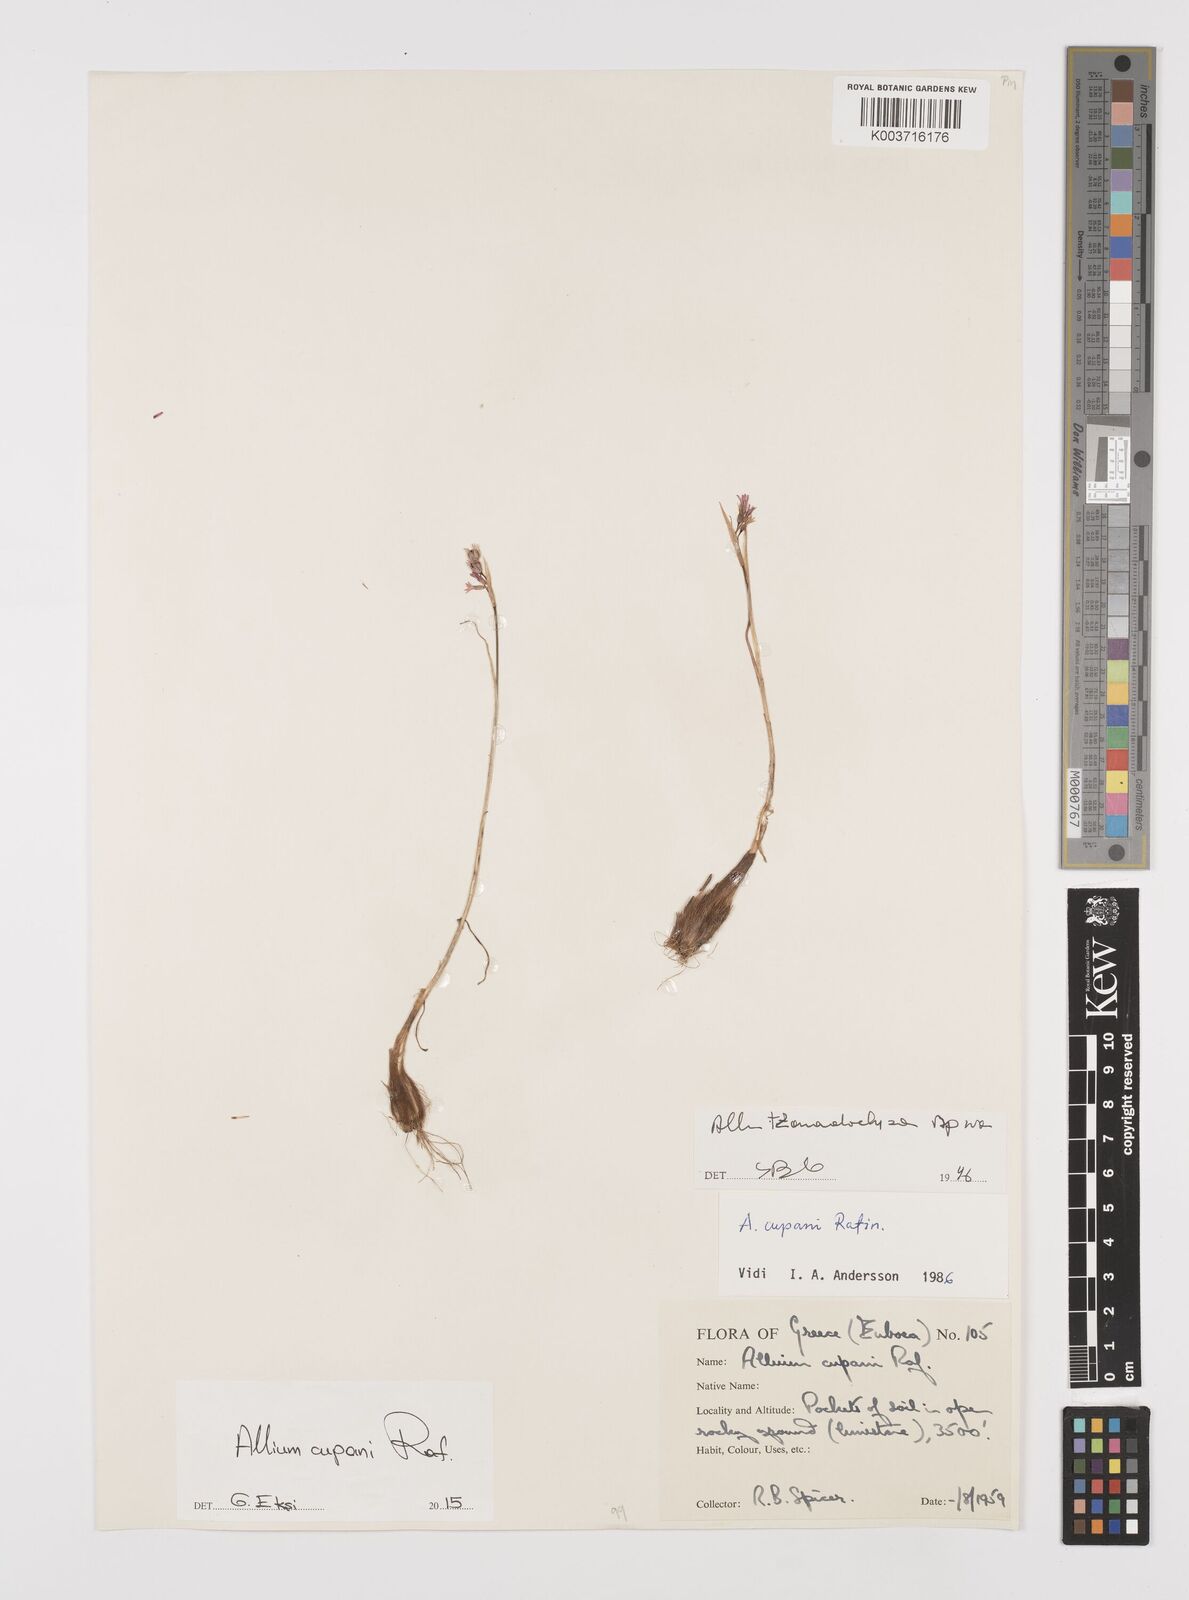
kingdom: Plantae
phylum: Tracheophyta
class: Liliopsida
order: Asparagales
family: Amaryllidaceae
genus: Allium
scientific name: Allium cupani
